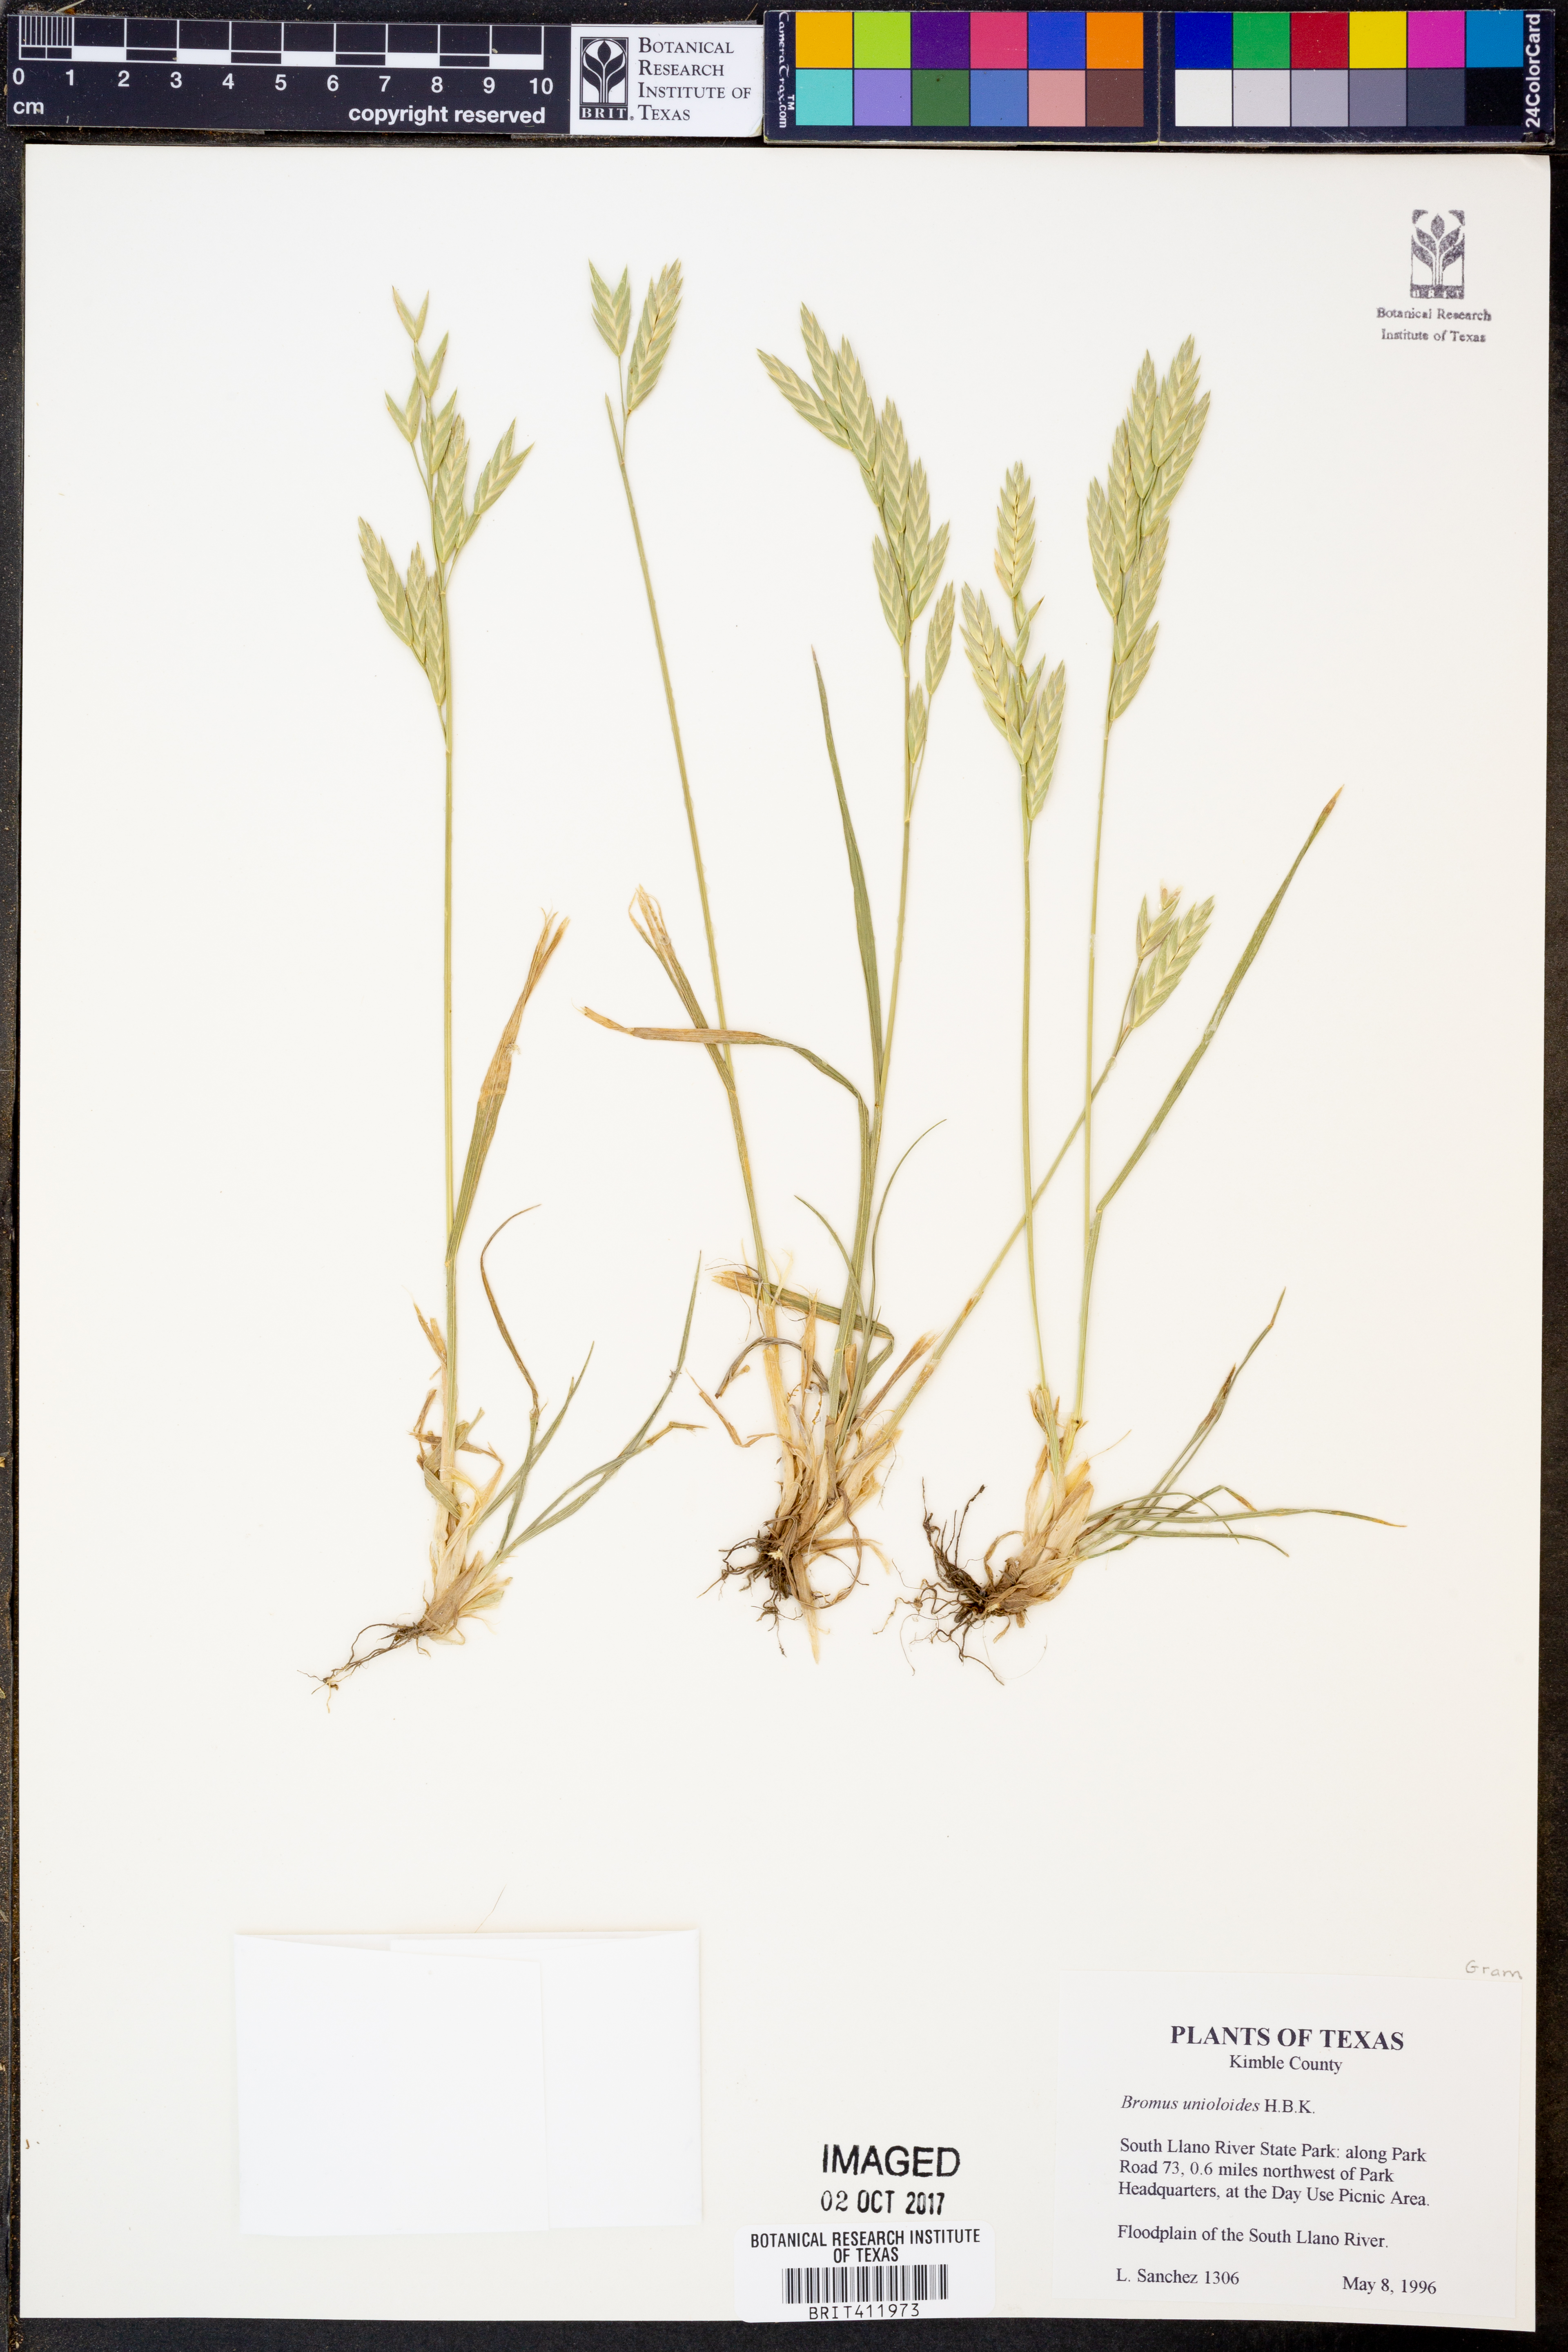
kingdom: Plantae
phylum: Tracheophyta
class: Liliopsida
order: Poales
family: Poaceae
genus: Bromus
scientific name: Bromus catharticus
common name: Rescuegrass
